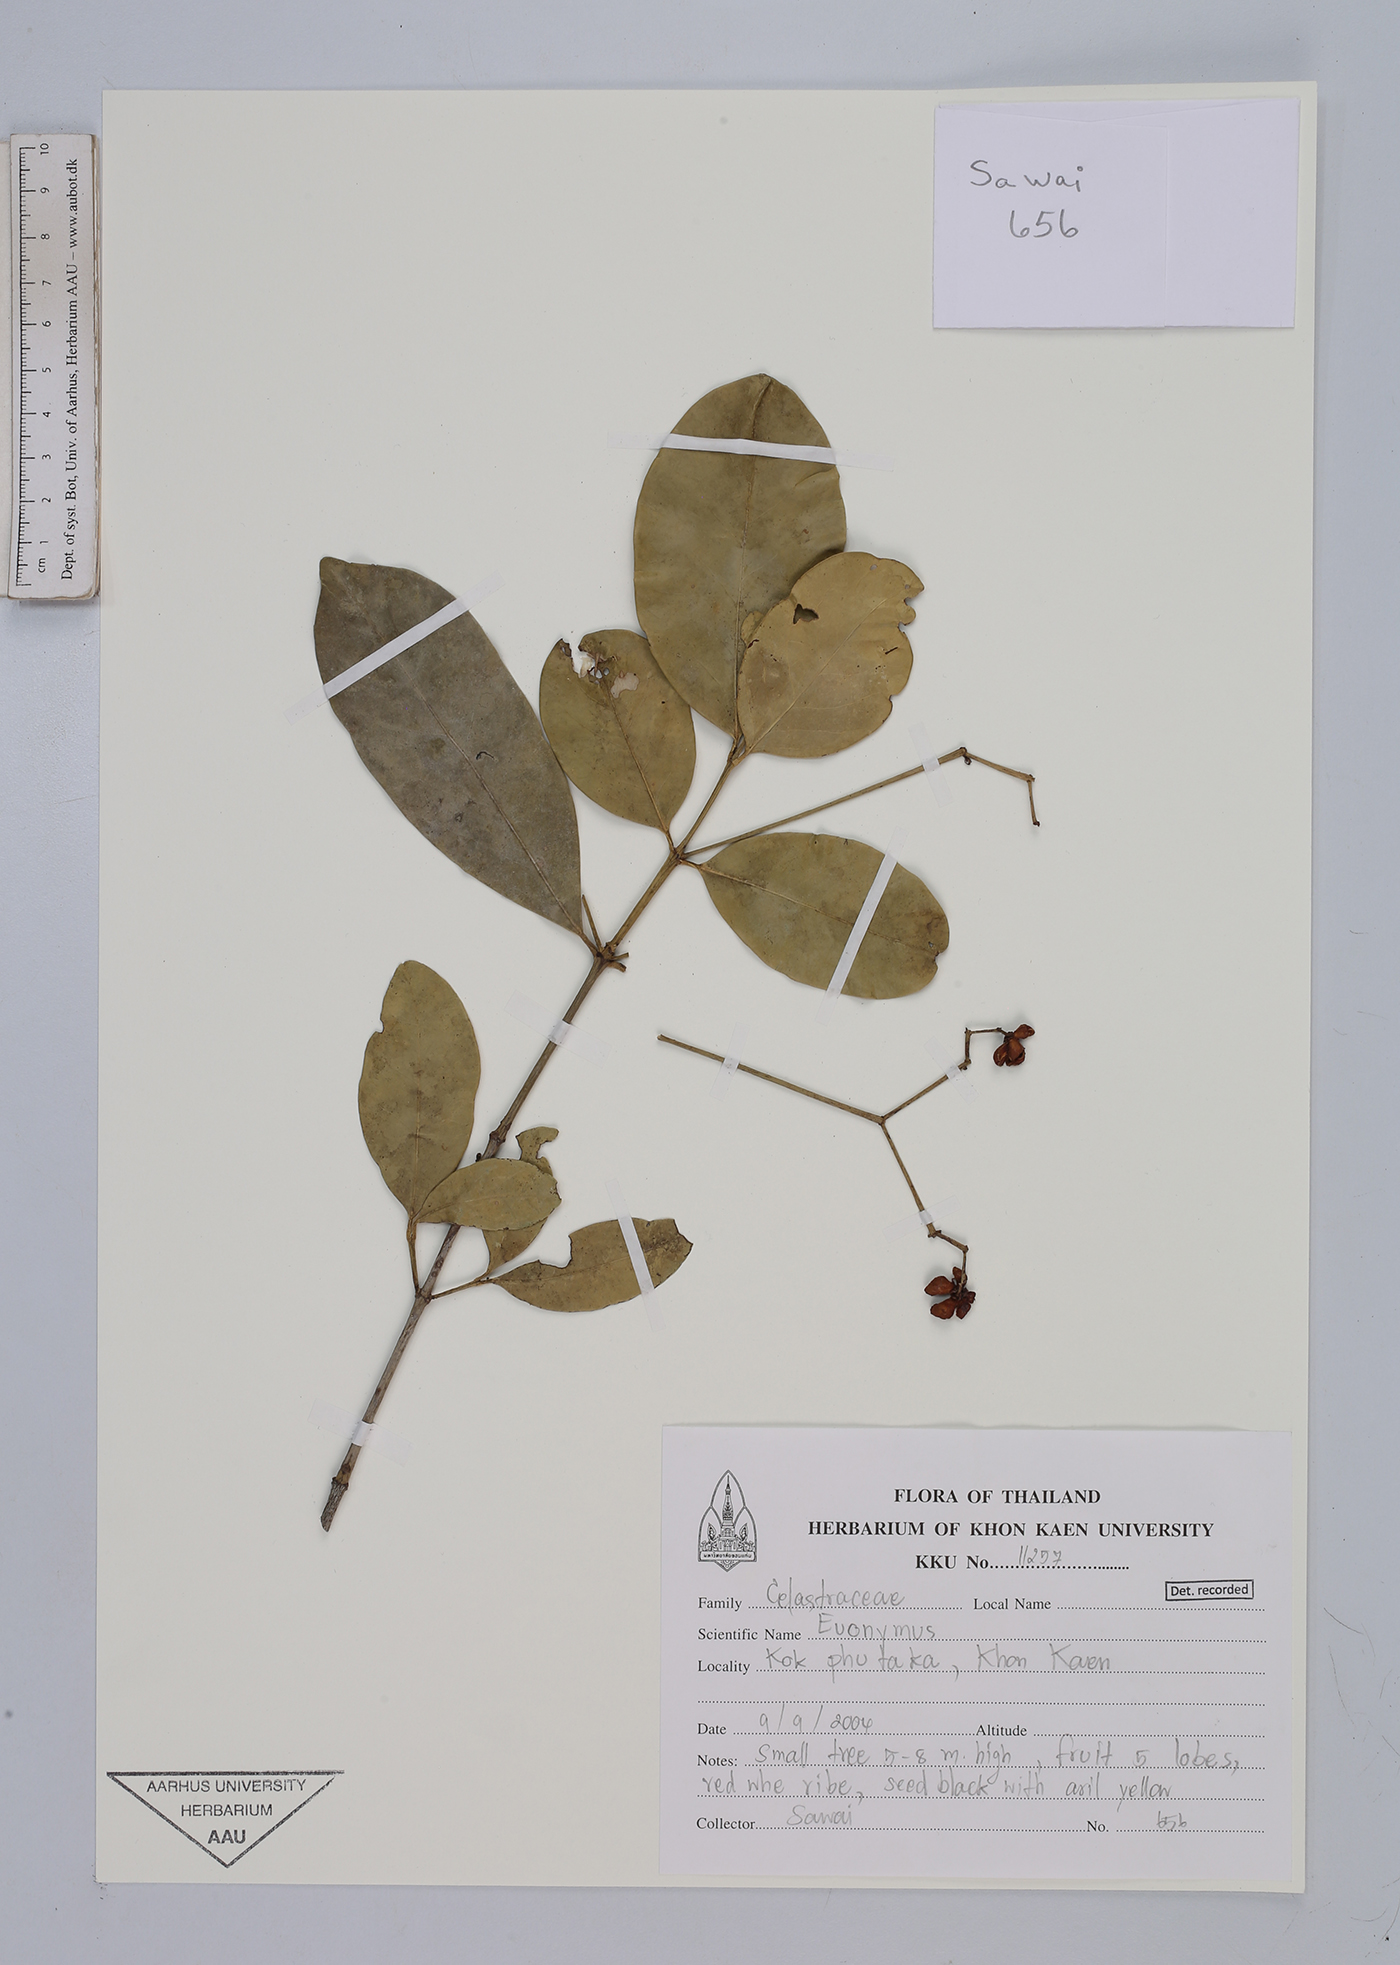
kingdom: Plantae
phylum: Tracheophyta
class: Magnoliopsida
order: Celastrales
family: Celastraceae
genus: Euonymus
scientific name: Euonymus
